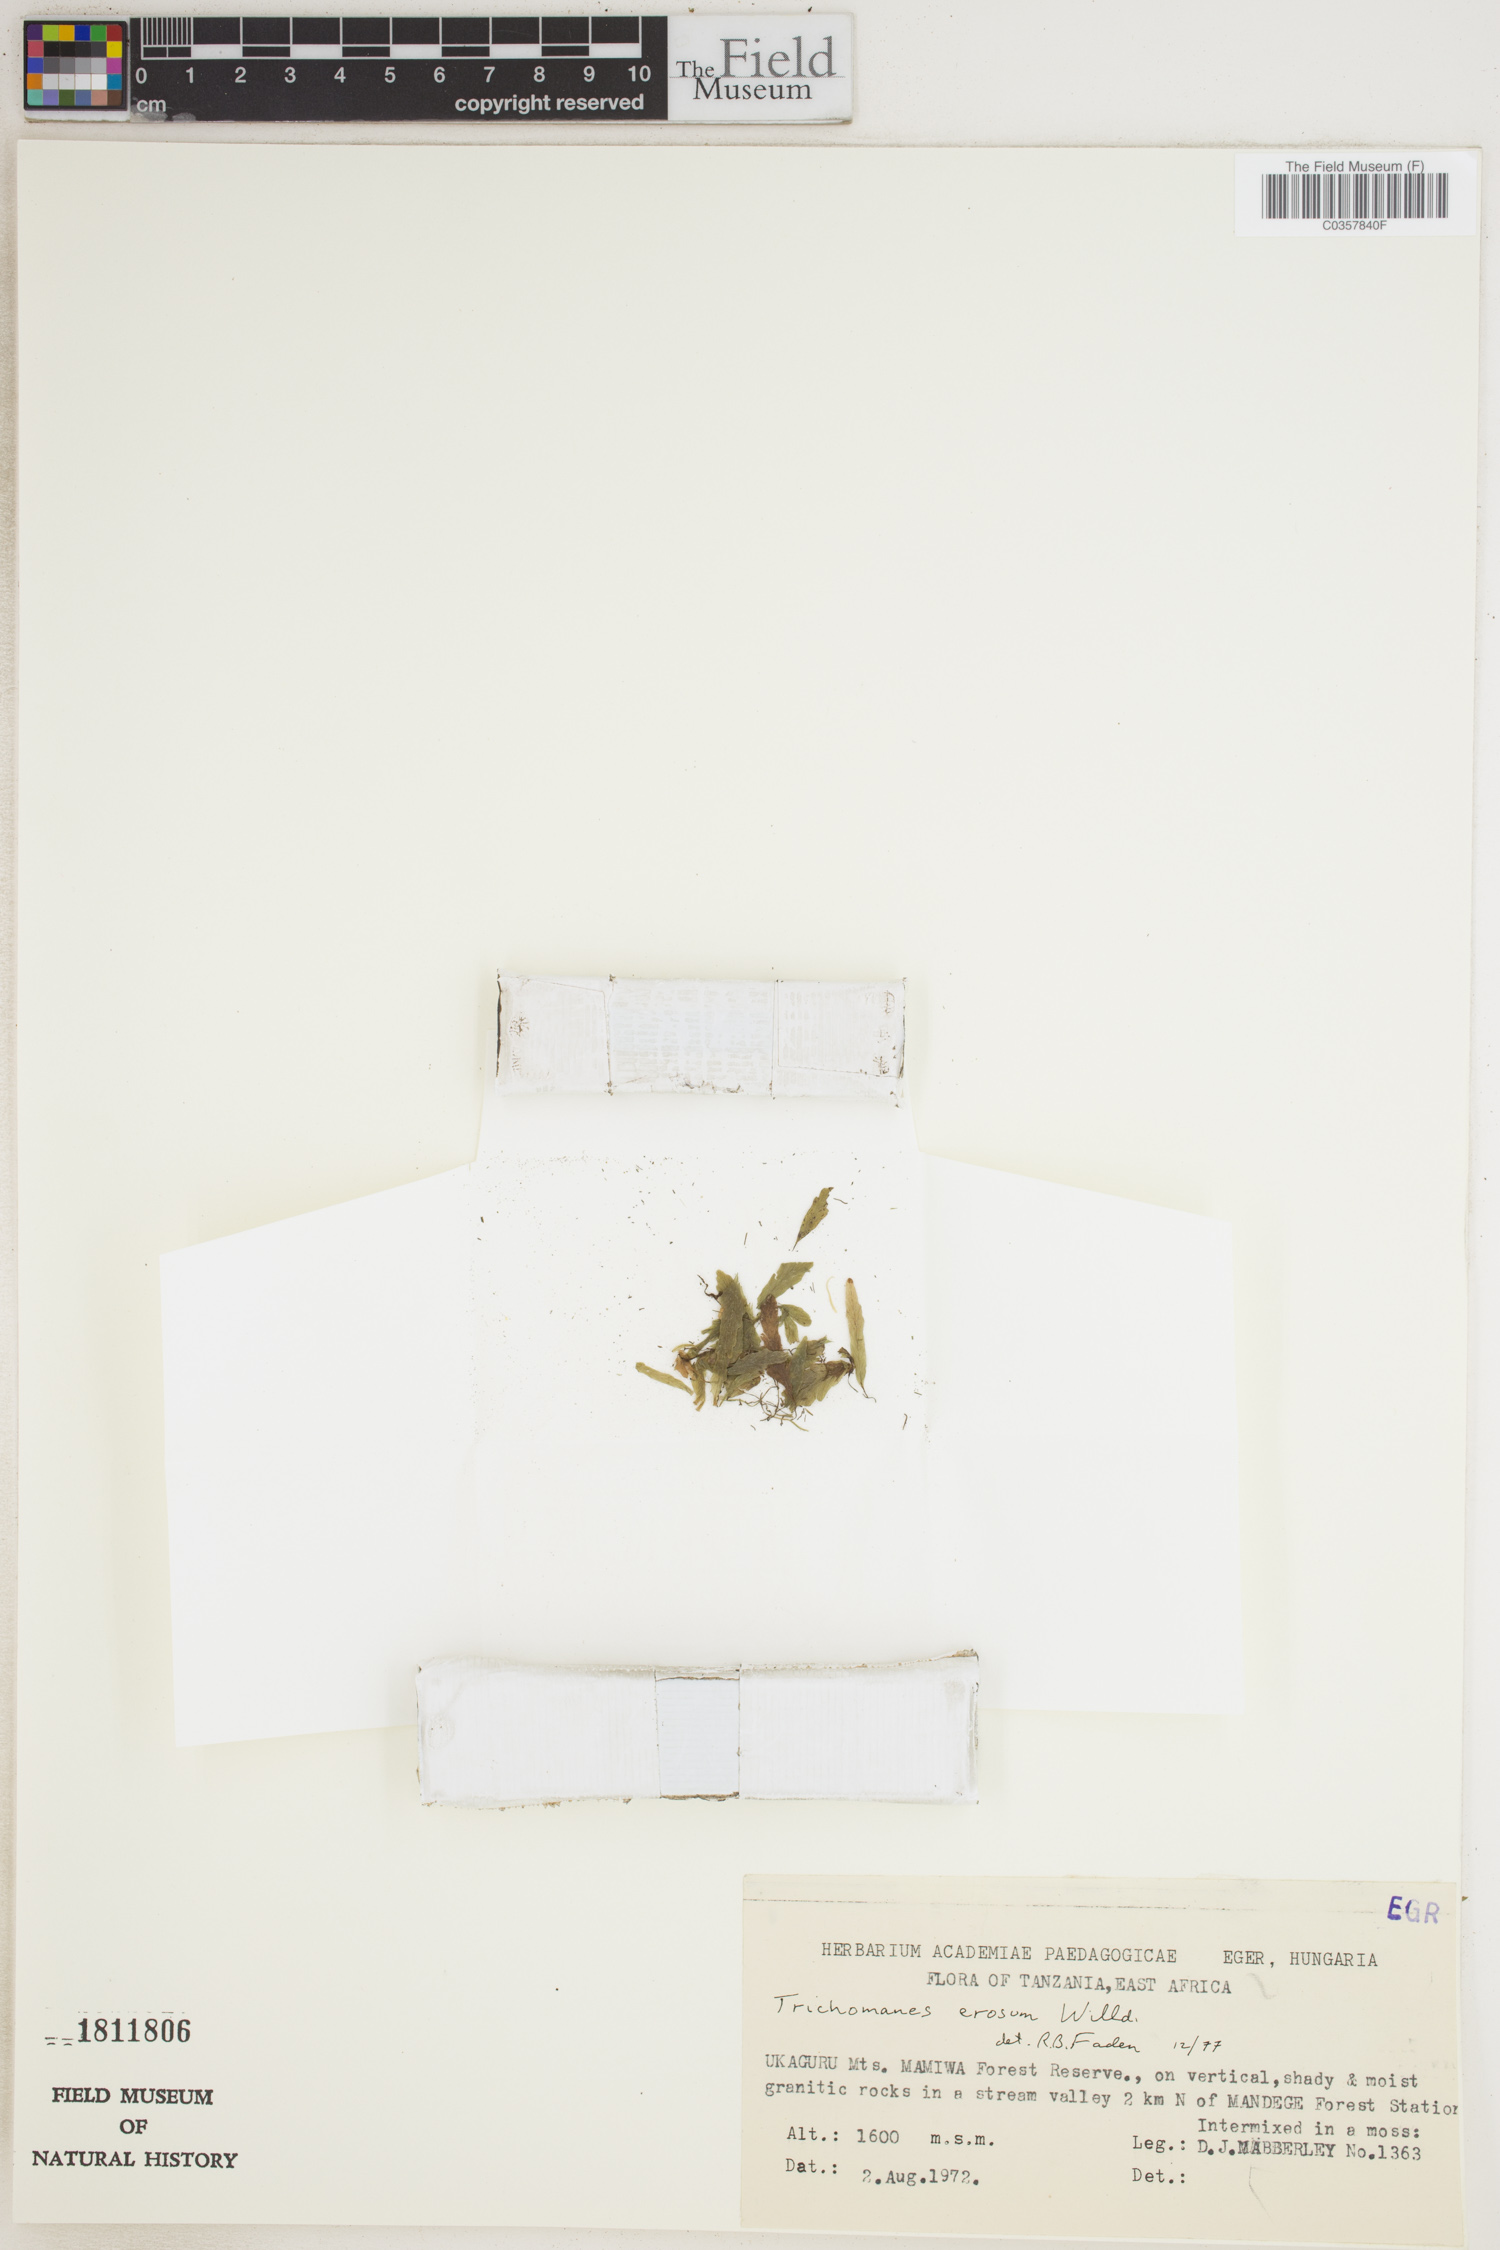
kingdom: Plantae
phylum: Tracheophyta
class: Polypodiopsida
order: Hymenophyllales
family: Hymenophyllaceae
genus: Didymoglossum
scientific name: Didymoglossum erosum
